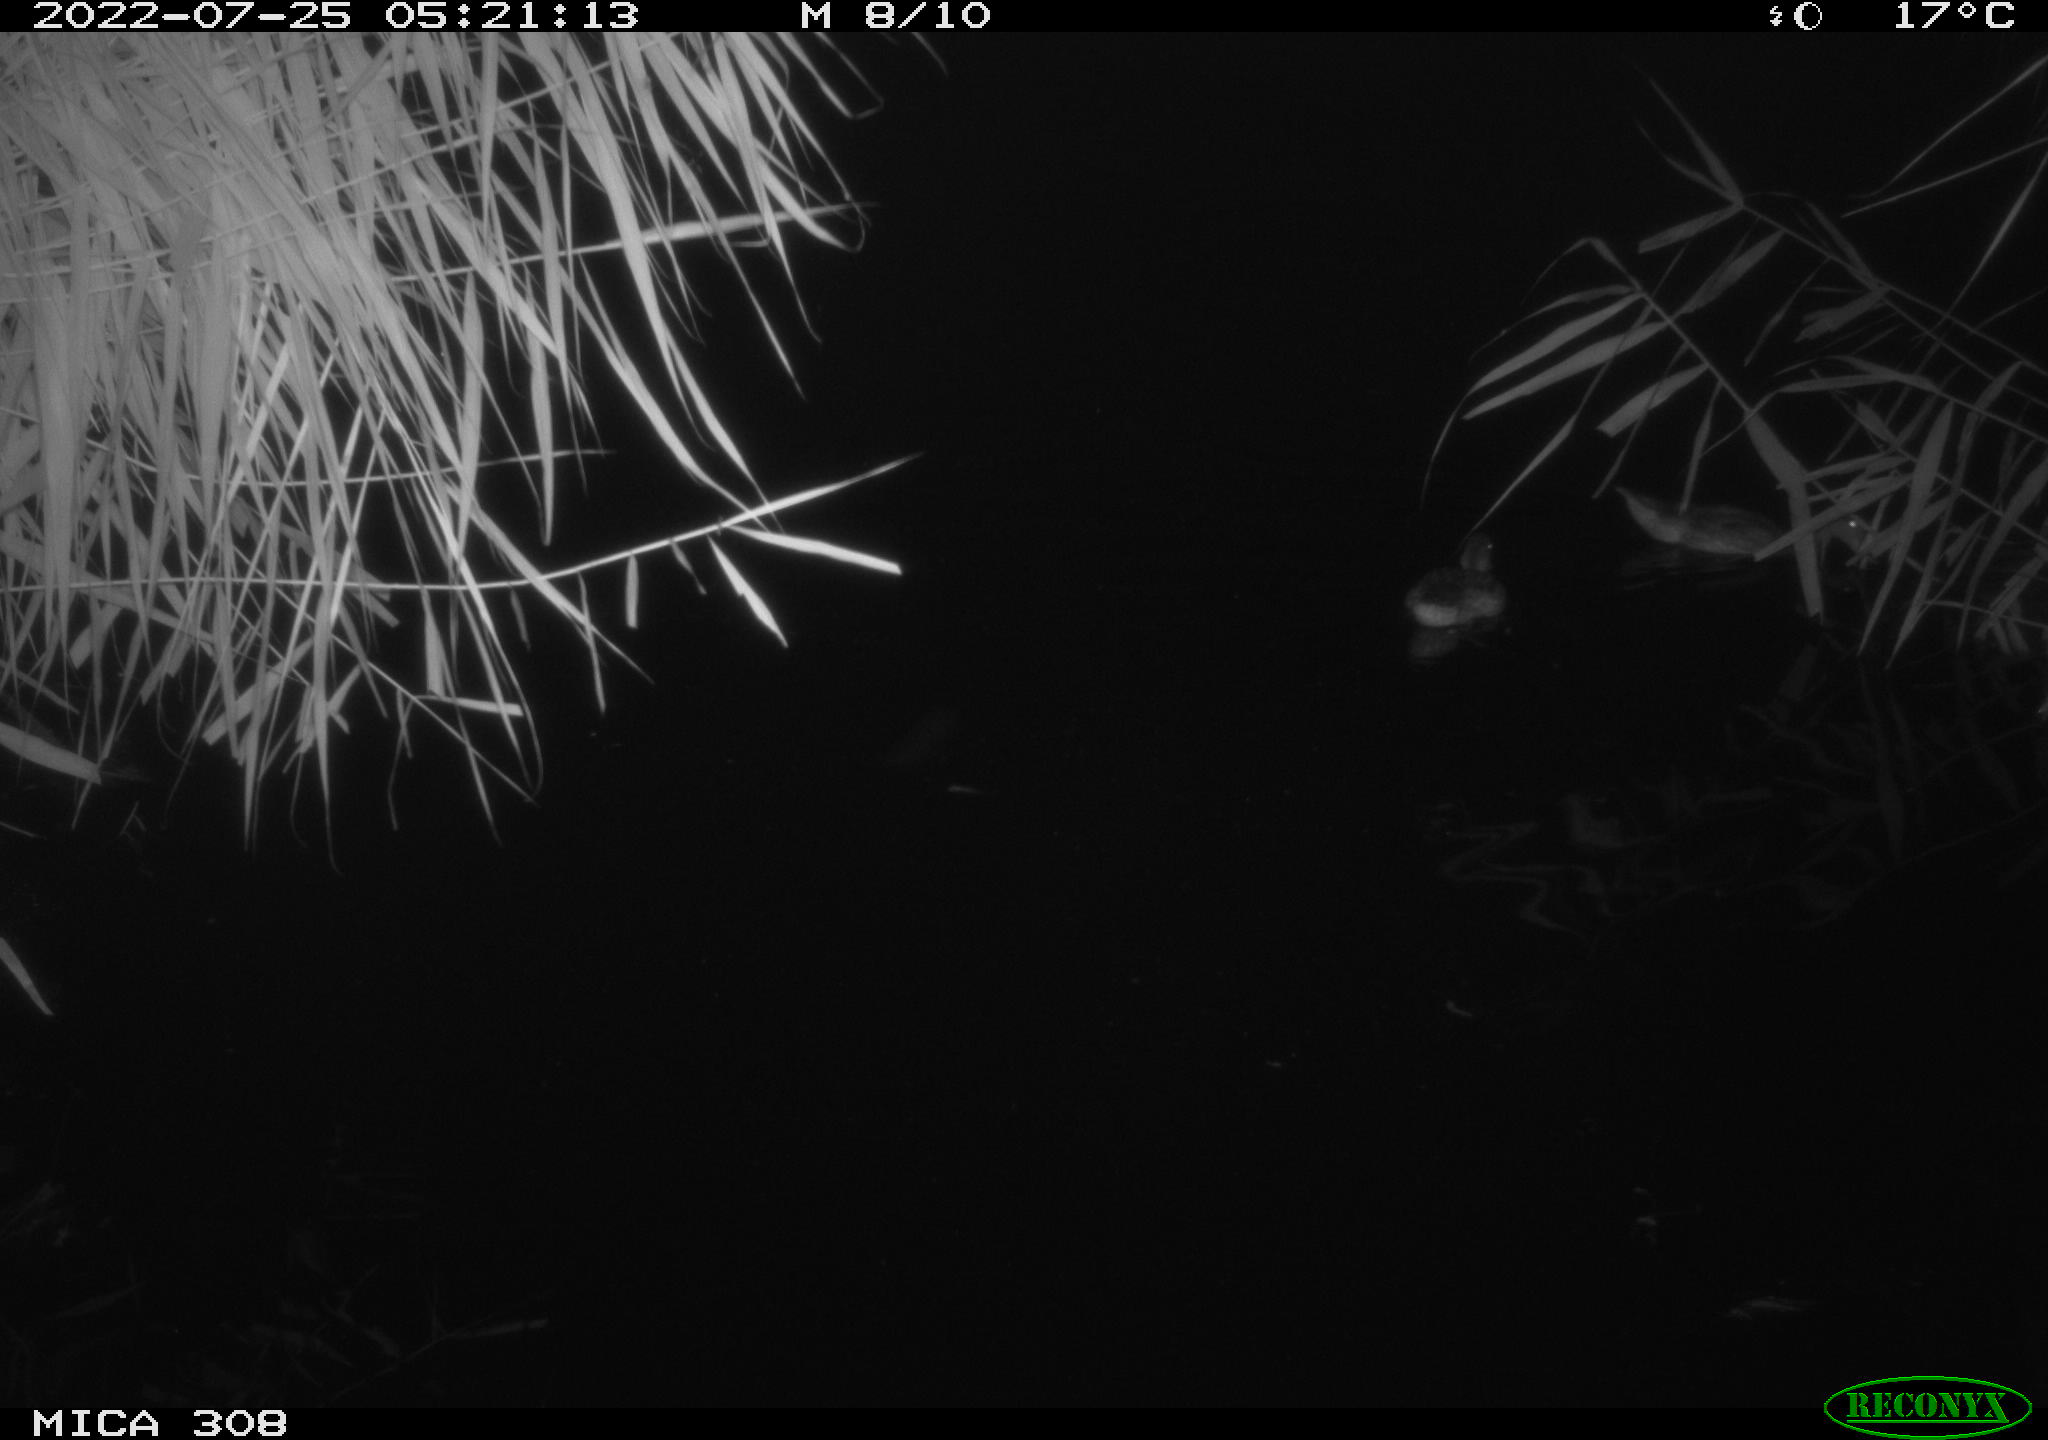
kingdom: Animalia
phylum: Chordata
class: Aves
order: Anseriformes
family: Anatidae
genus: Anas
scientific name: Anas platyrhynchos
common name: Mallard
